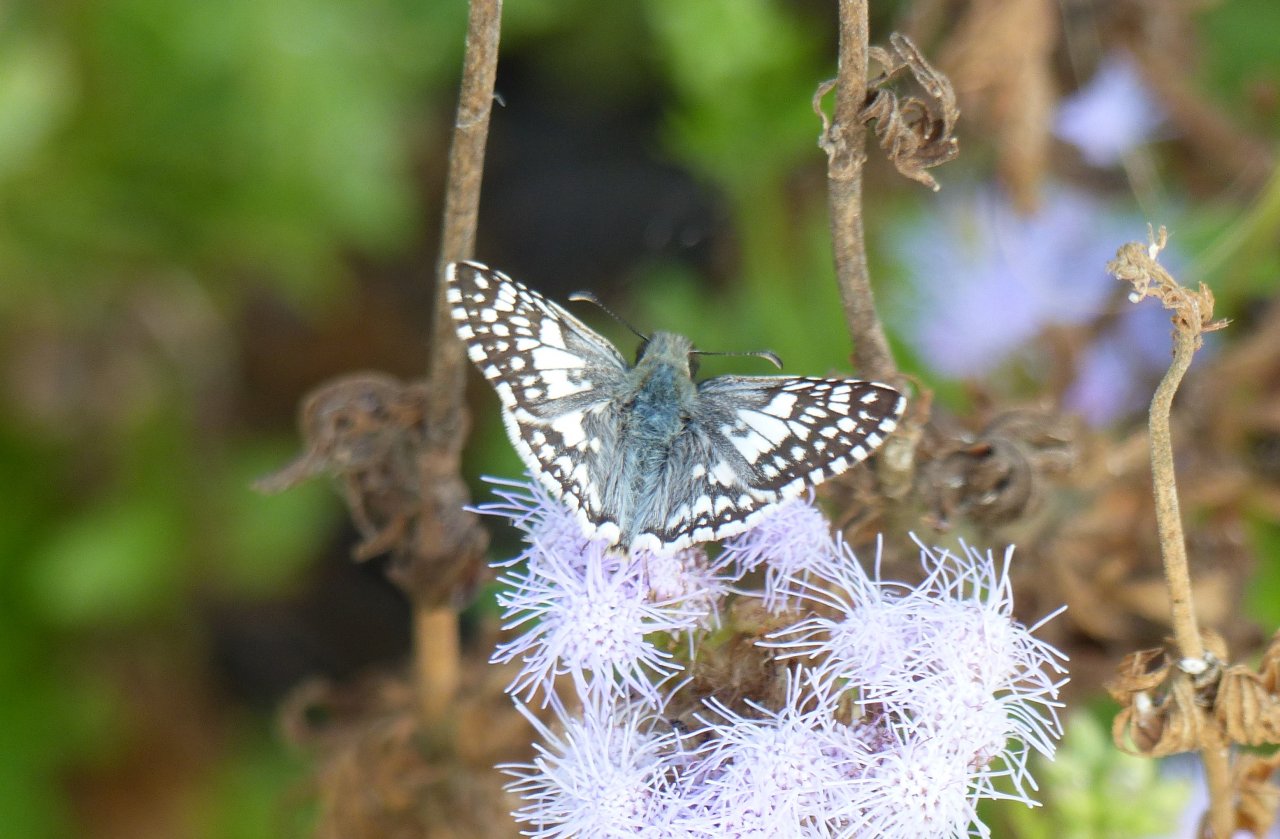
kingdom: Animalia
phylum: Arthropoda
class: Insecta
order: Lepidoptera
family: Hesperiidae
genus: Pyrgus
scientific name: Pyrgus communis
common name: White Checkered-Skipper
